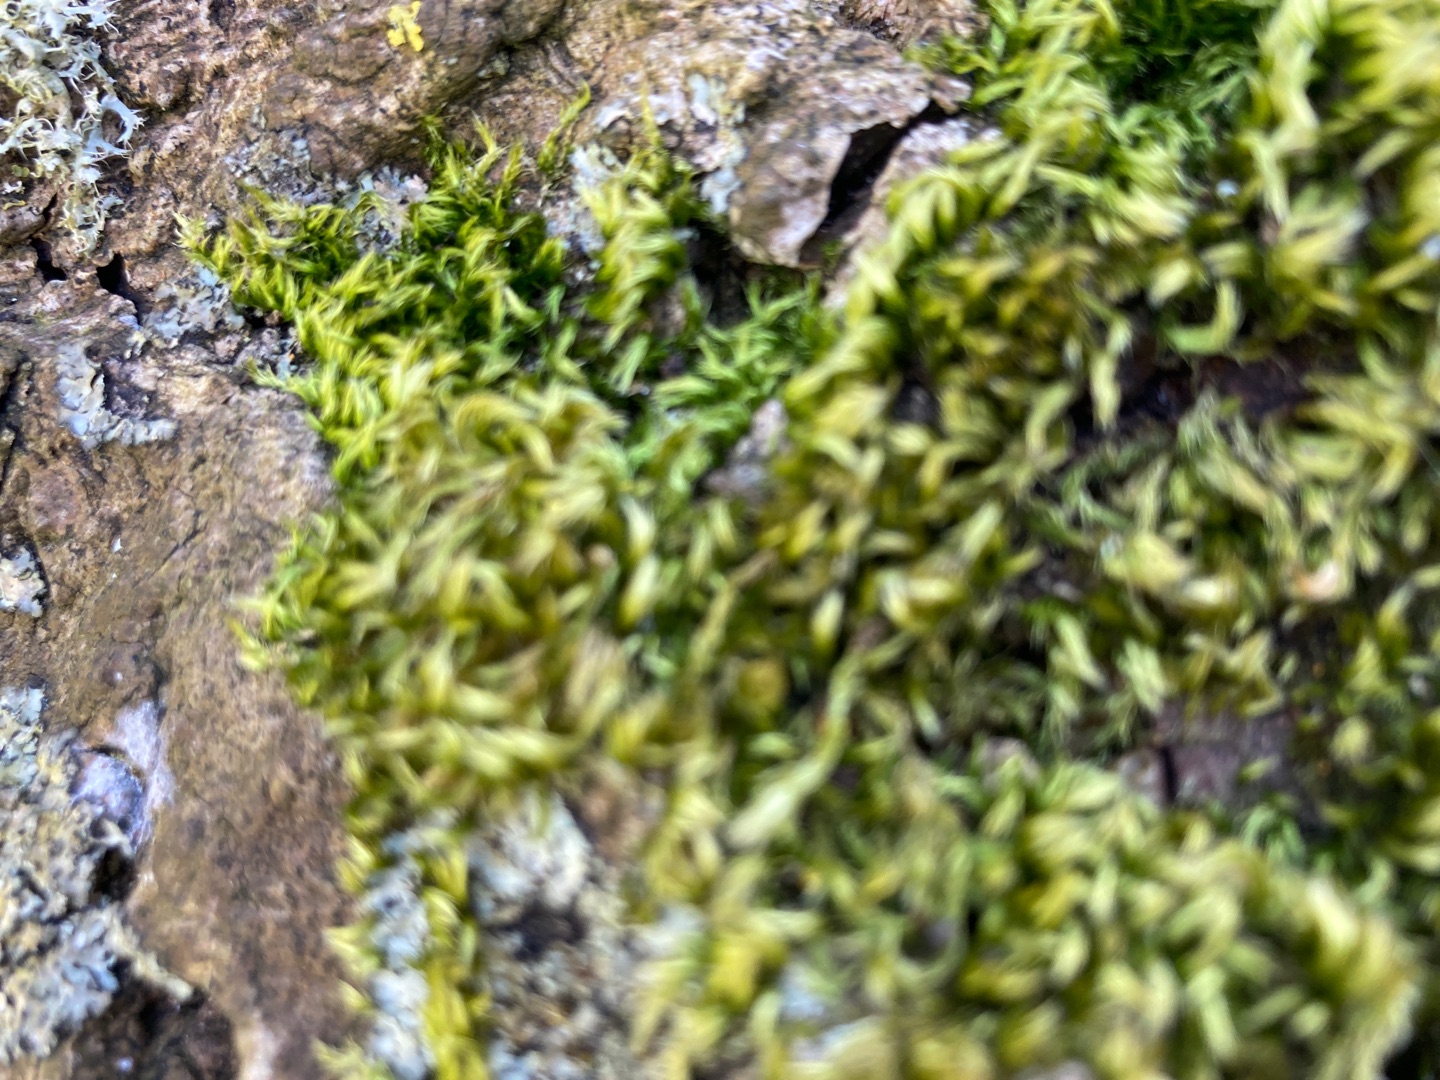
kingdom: Plantae
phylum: Bryophyta
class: Bryopsida
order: Hypnales
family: Brachytheciaceae
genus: Homalothecium
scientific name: Homalothecium sericeum
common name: Krybende silkemos
